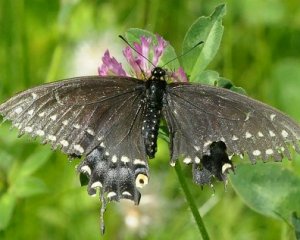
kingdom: Animalia
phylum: Arthropoda
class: Insecta
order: Lepidoptera
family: Papilionidae
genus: Papilio
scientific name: Papilio polyxenes
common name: Black Swallowtail
